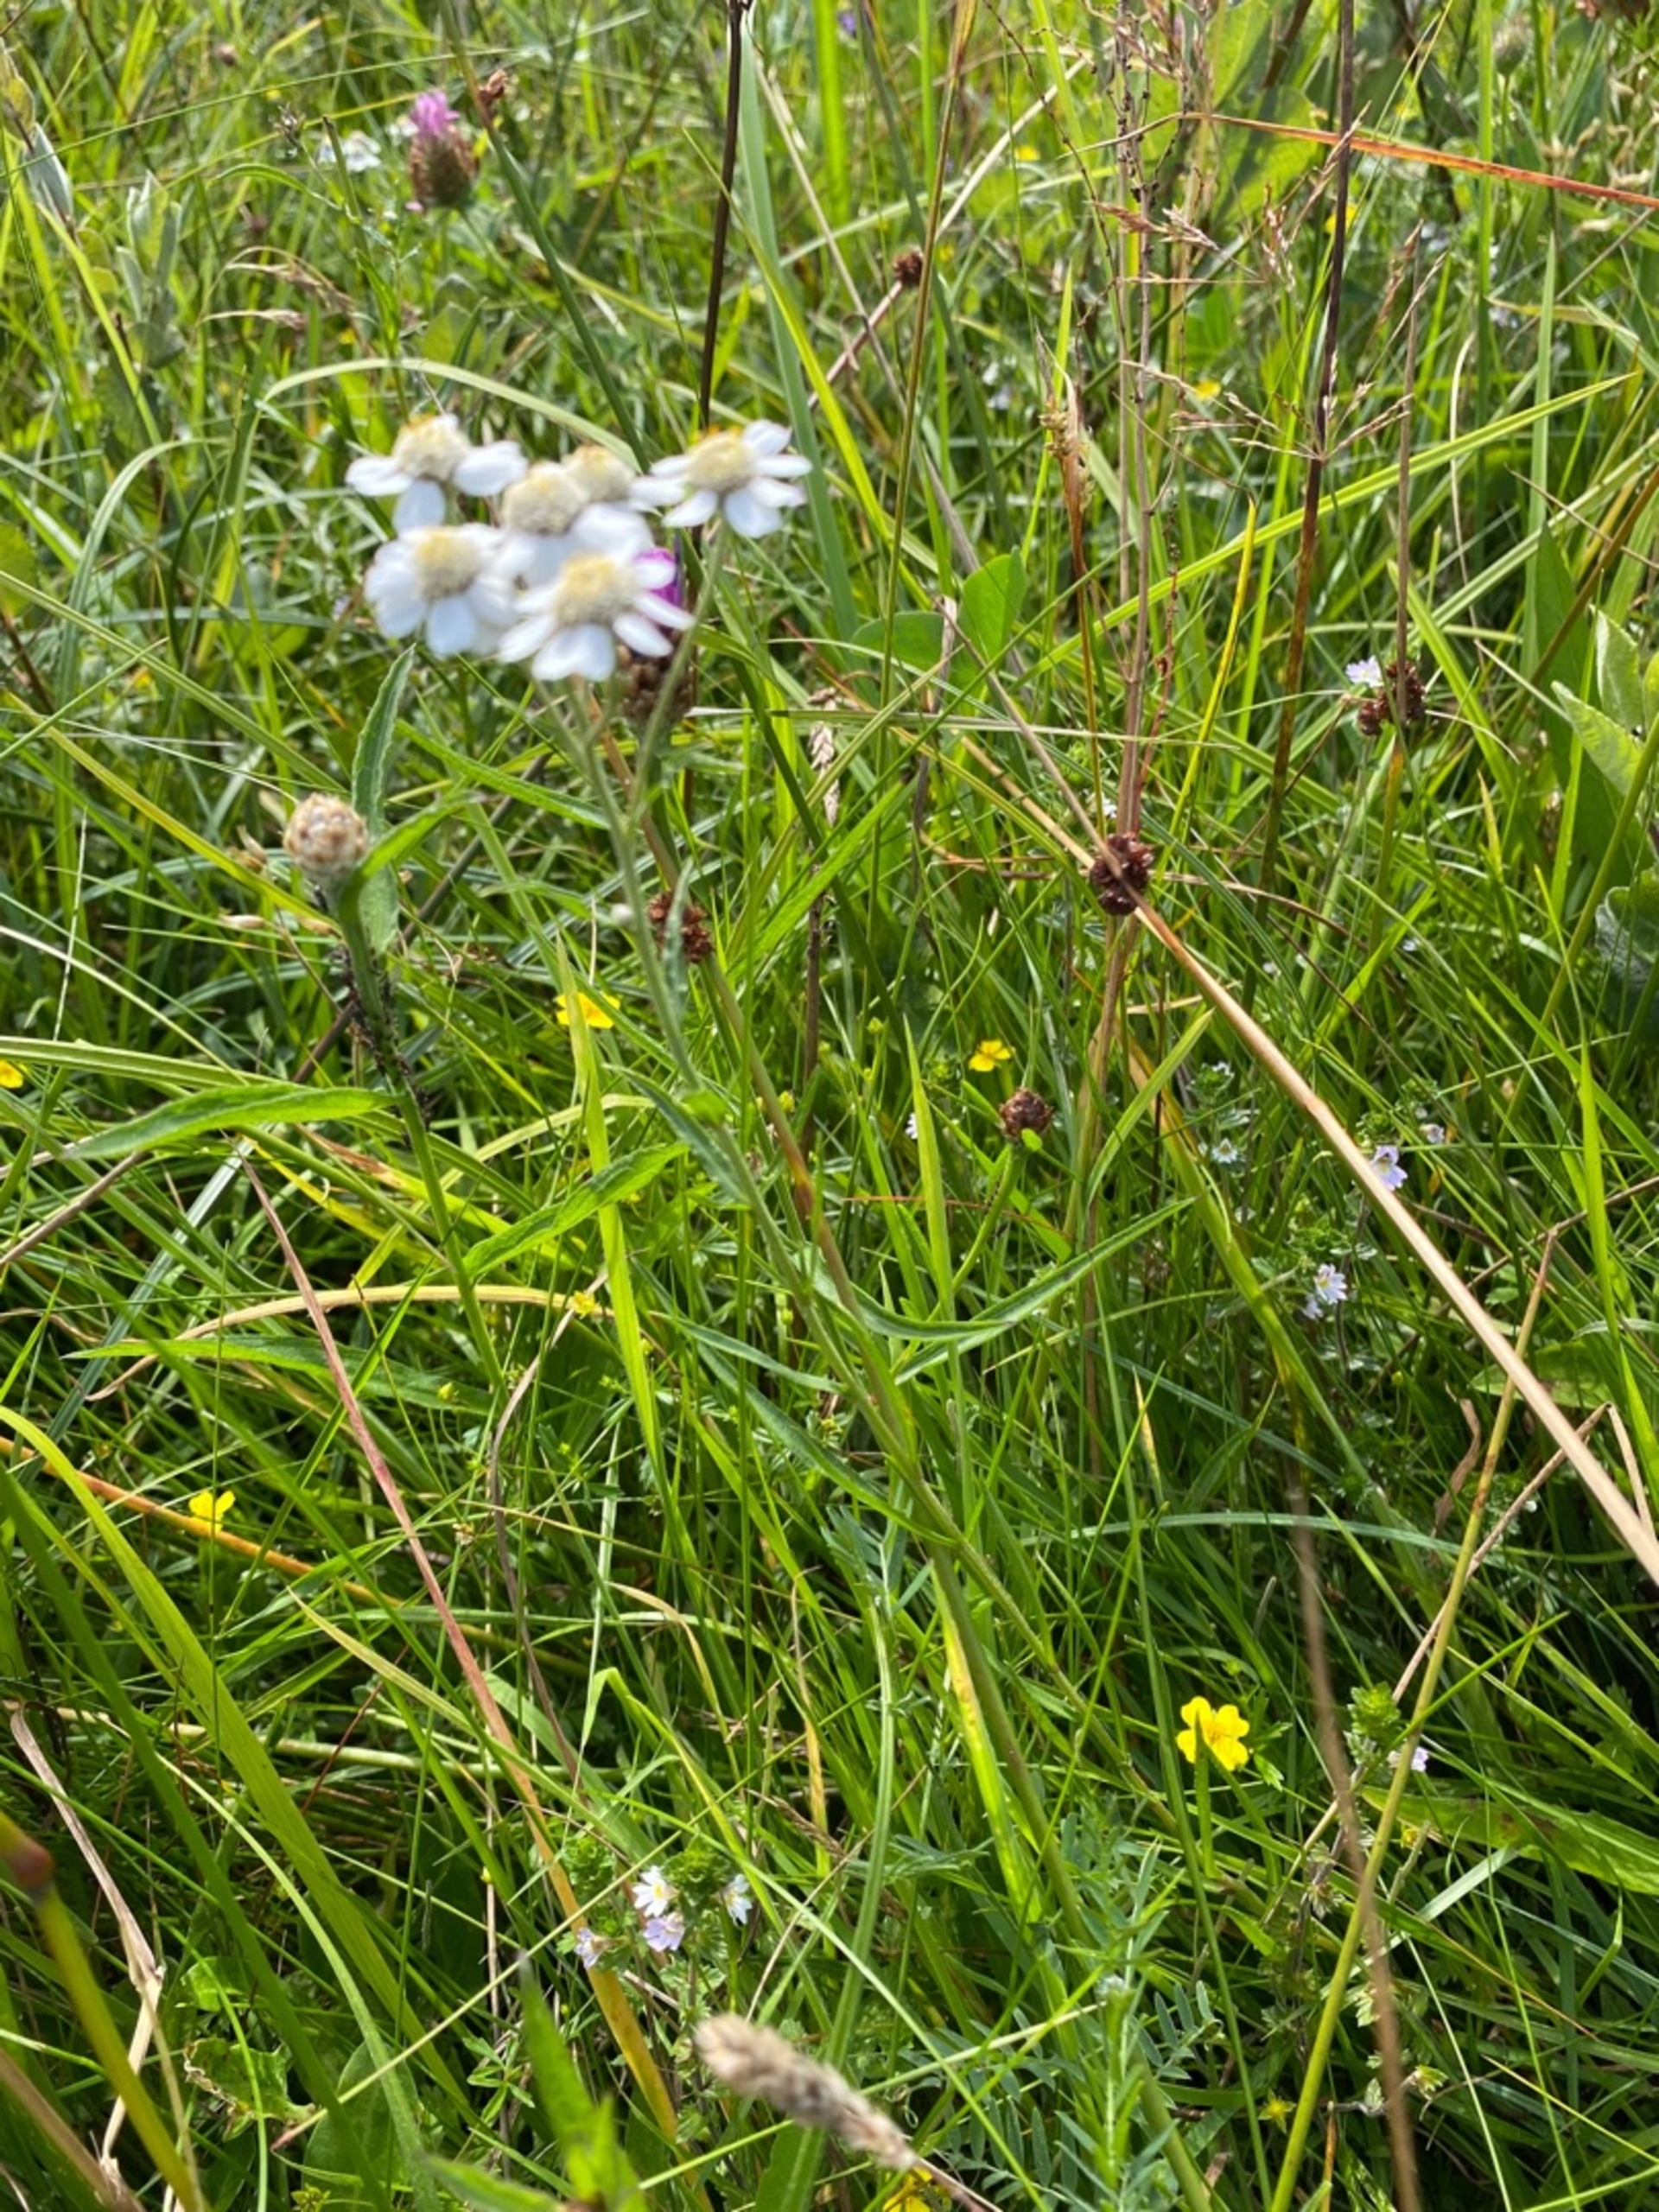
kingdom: Plantae
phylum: Tracheophyta
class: Magnoliopsida
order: Asterales
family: Asteraceae
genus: Achillea
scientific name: Achillea ptarmica
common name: Nyse-røllike
